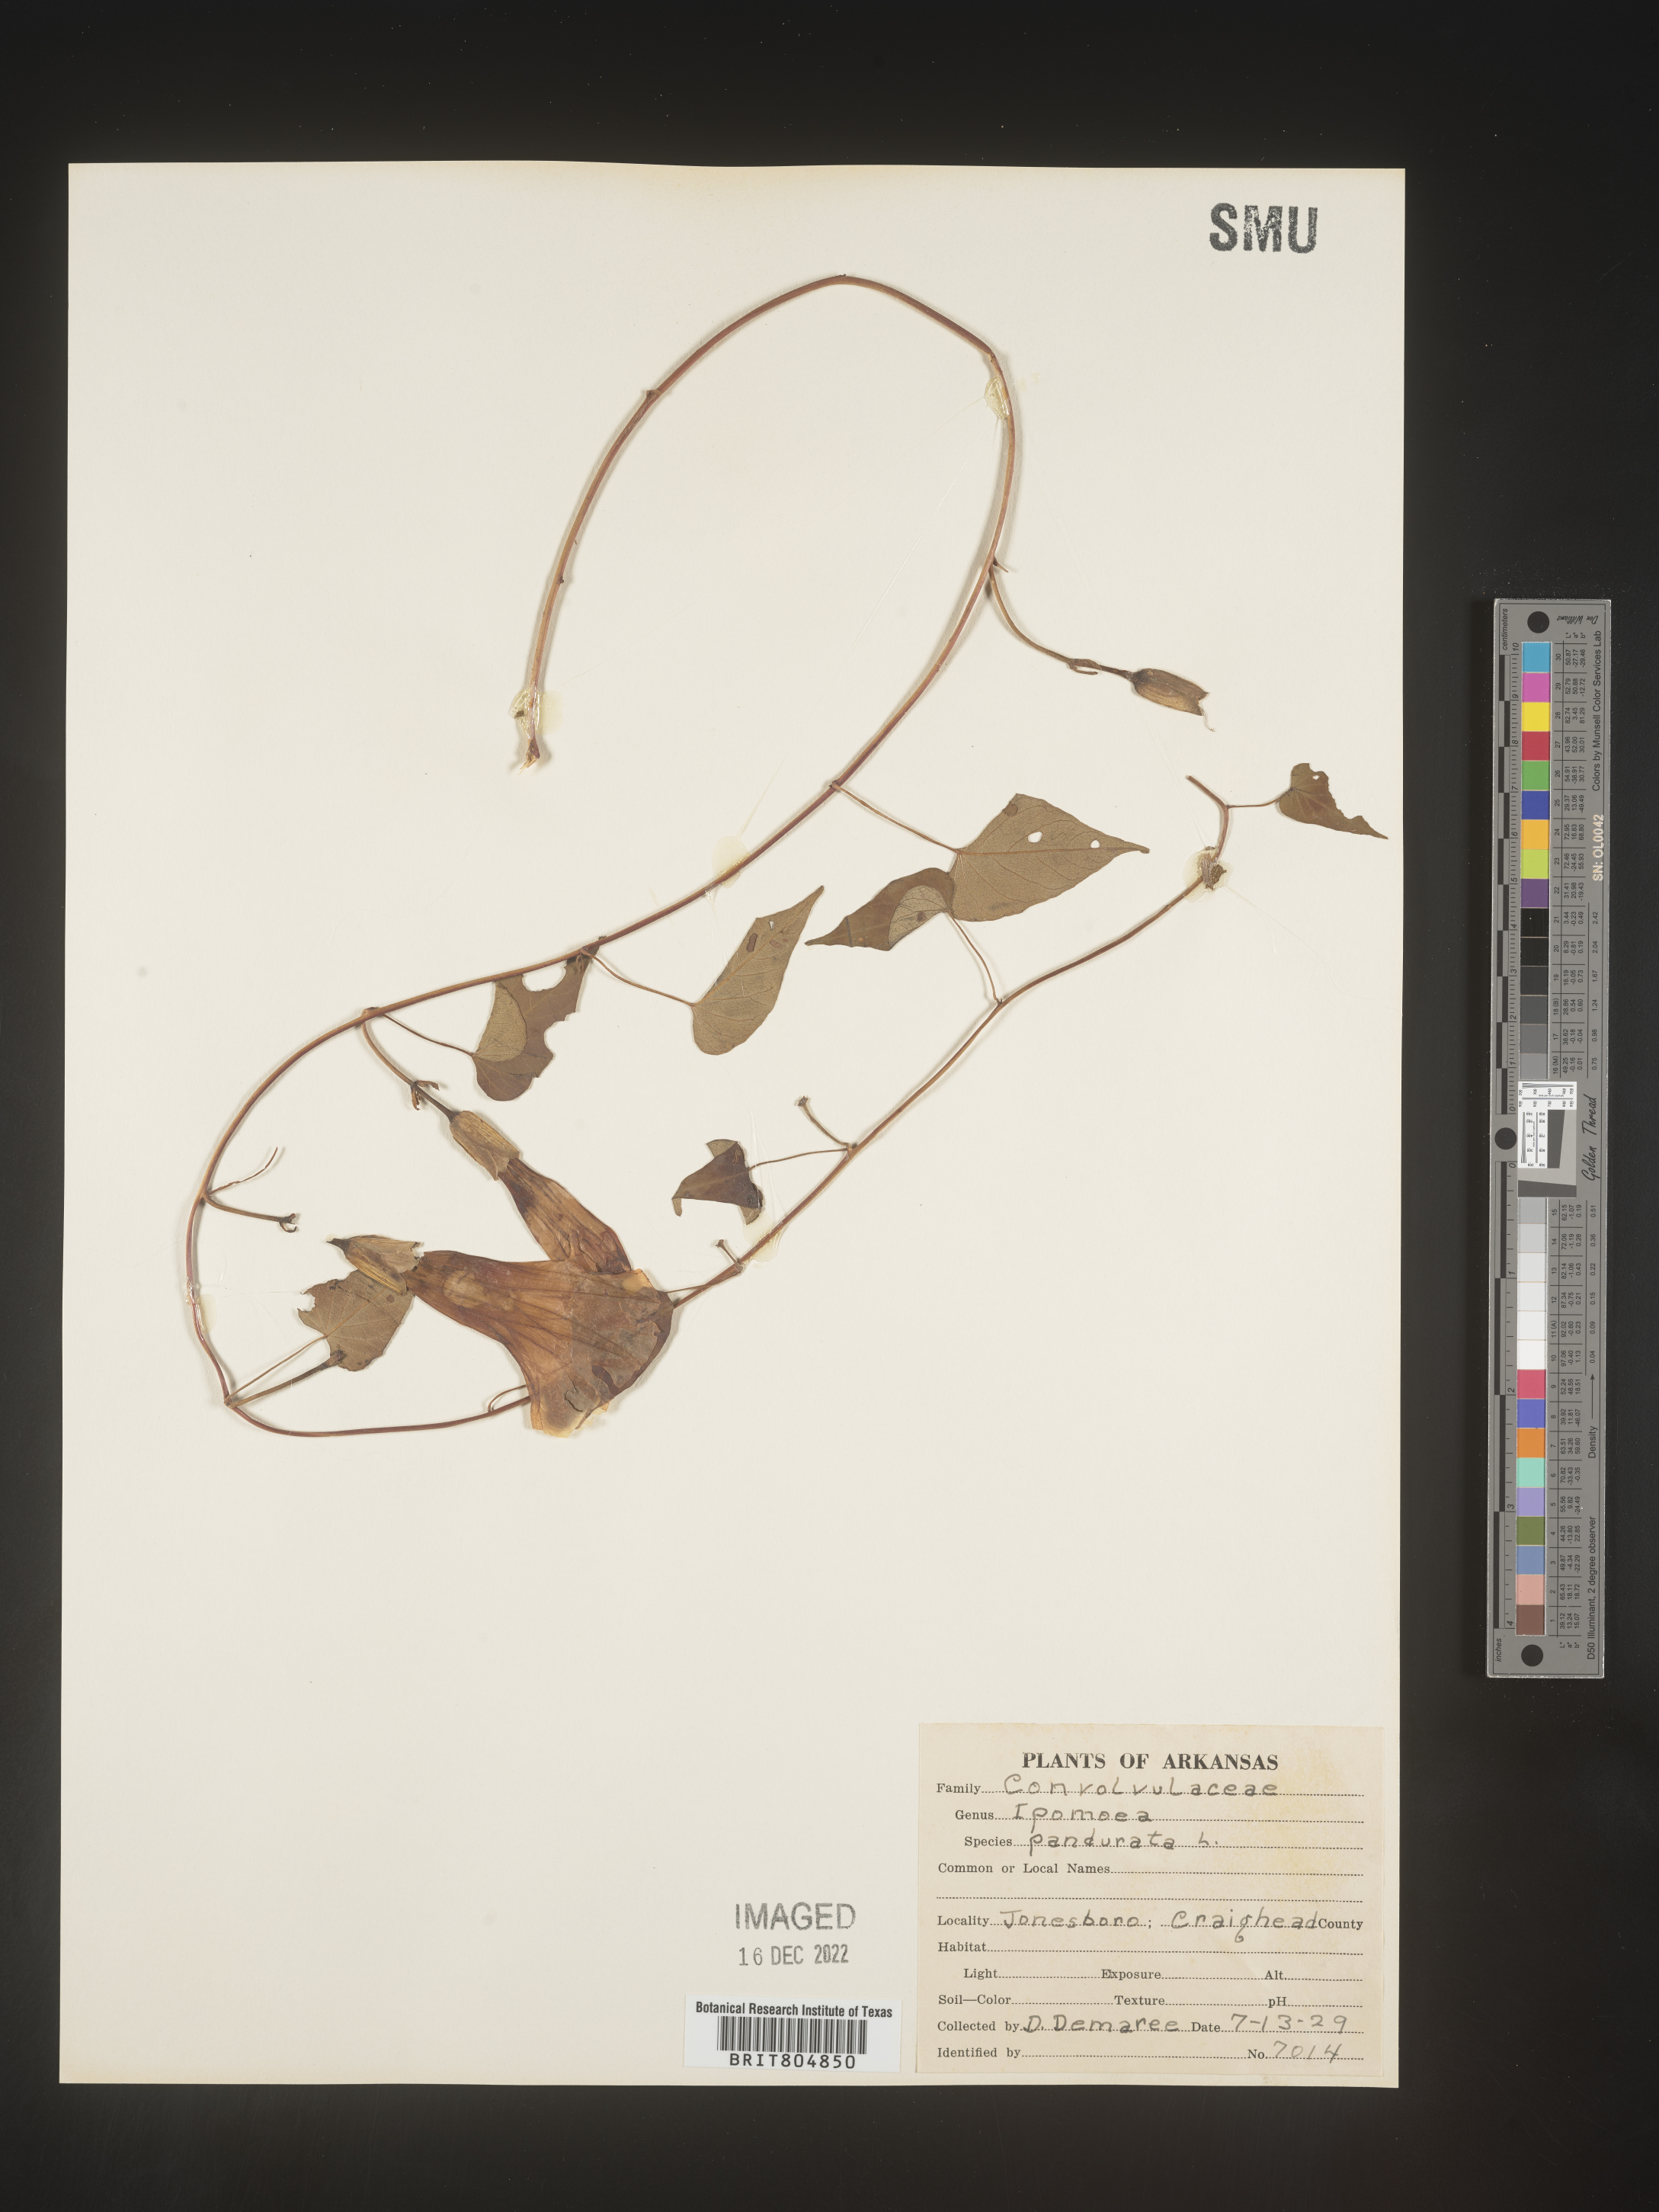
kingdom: Plantae
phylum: Tracheophyta
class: Magnoliopsida
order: Solanales
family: Convolvulaceae
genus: Ipomoea
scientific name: Ipomoea pandurata
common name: Man-of-the-earth
